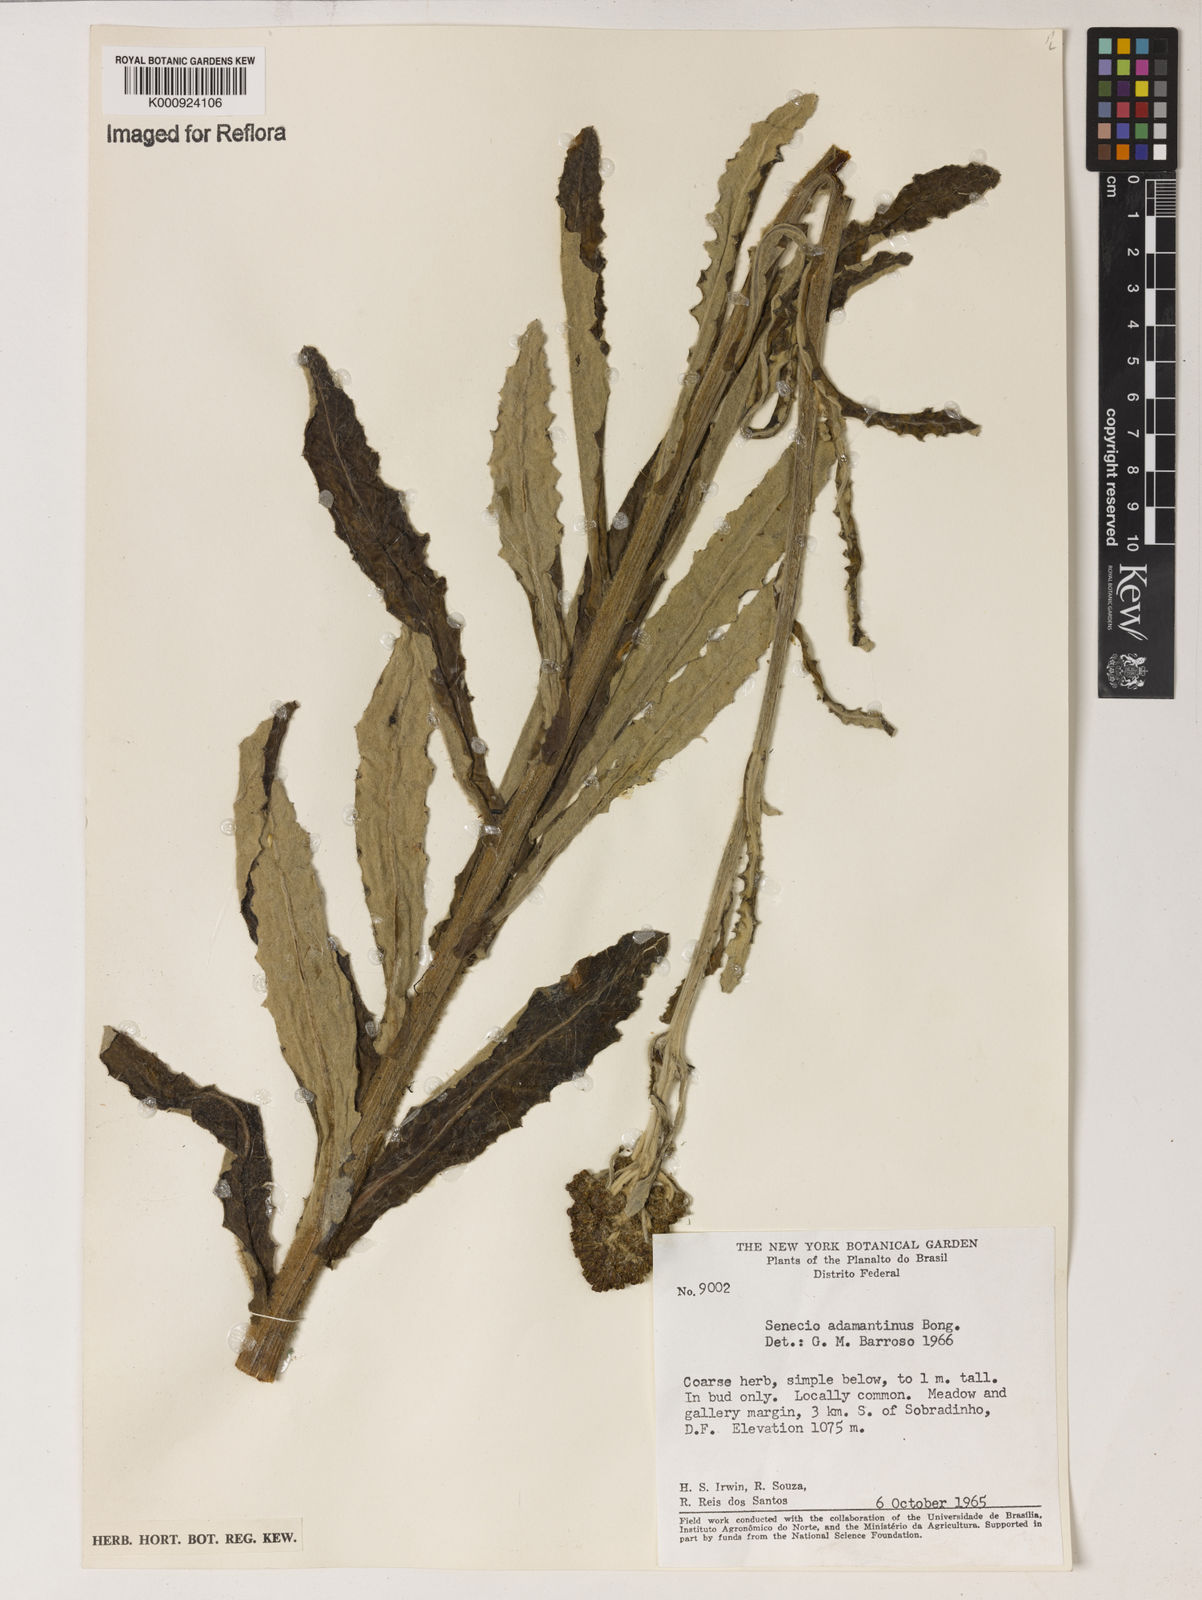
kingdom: Plantae
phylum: Tracheophyta
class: Magnoliopsida
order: Asterales
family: Asteraceae
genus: Senecio
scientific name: Senecio
